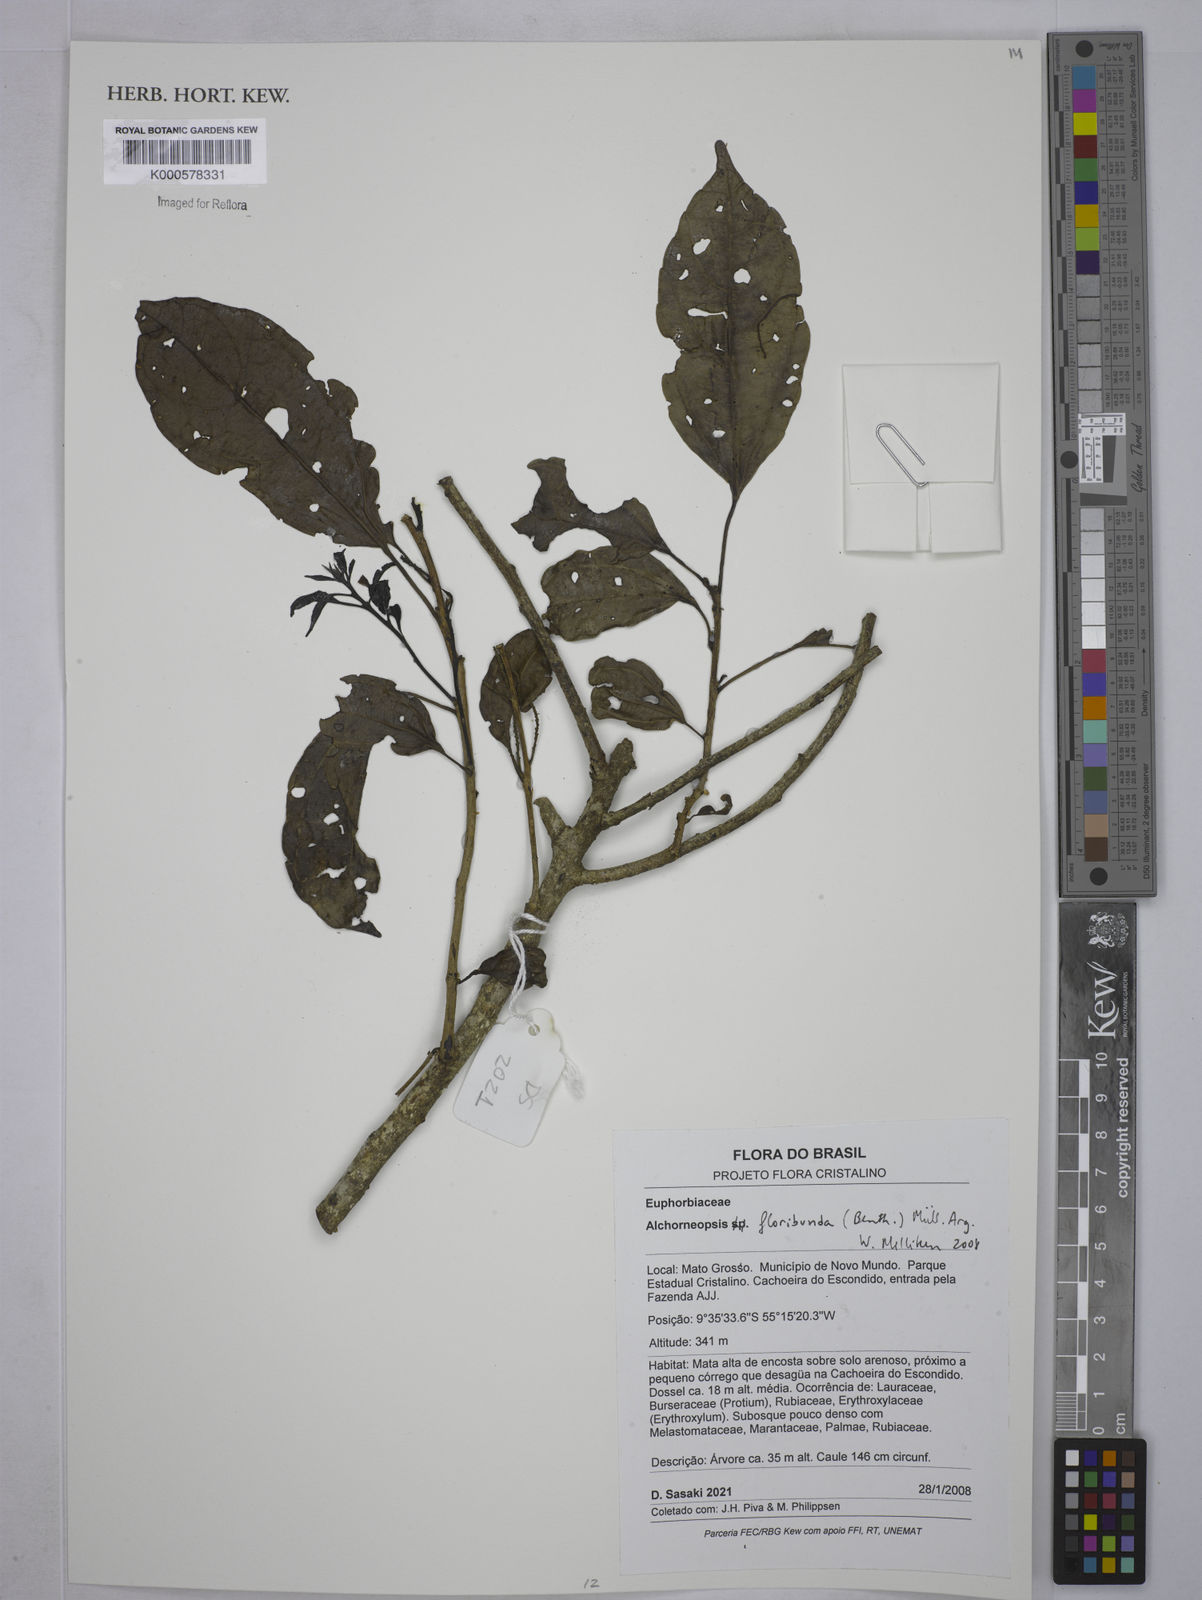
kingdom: Plantae
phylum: Tracheophyta
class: Magnoliopsida
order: Malpighiales
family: Euphorbiaceae
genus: Alchorneopsis
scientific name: Alchorneopsis
